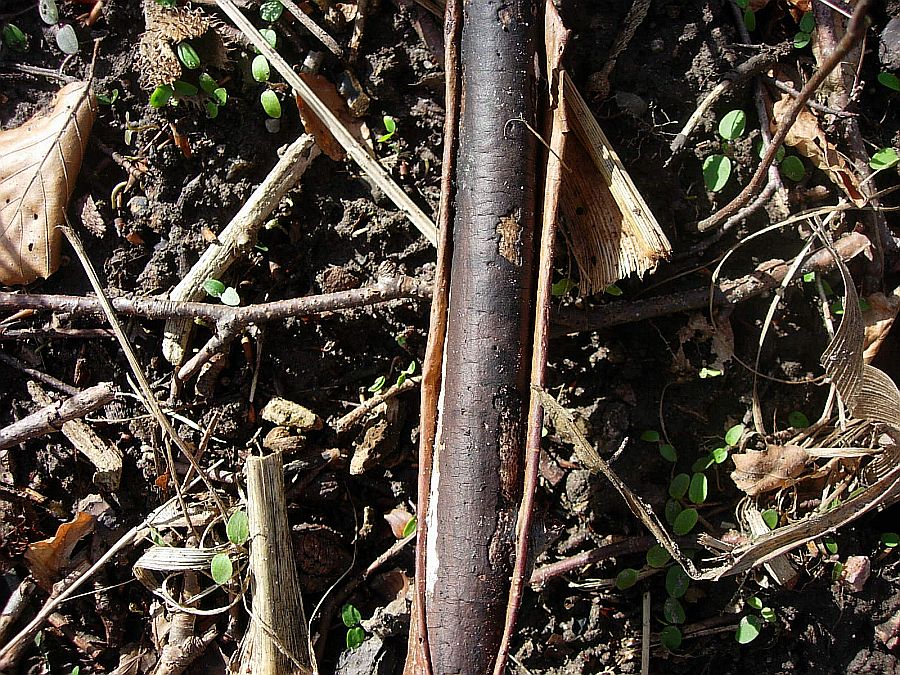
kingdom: Fungi
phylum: Ascomycota
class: Sordariomycetes
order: Xylariales
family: Diatrypaceae
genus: Diatrype
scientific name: Diatrype decorticata
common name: barksprænger-kulskorpe
